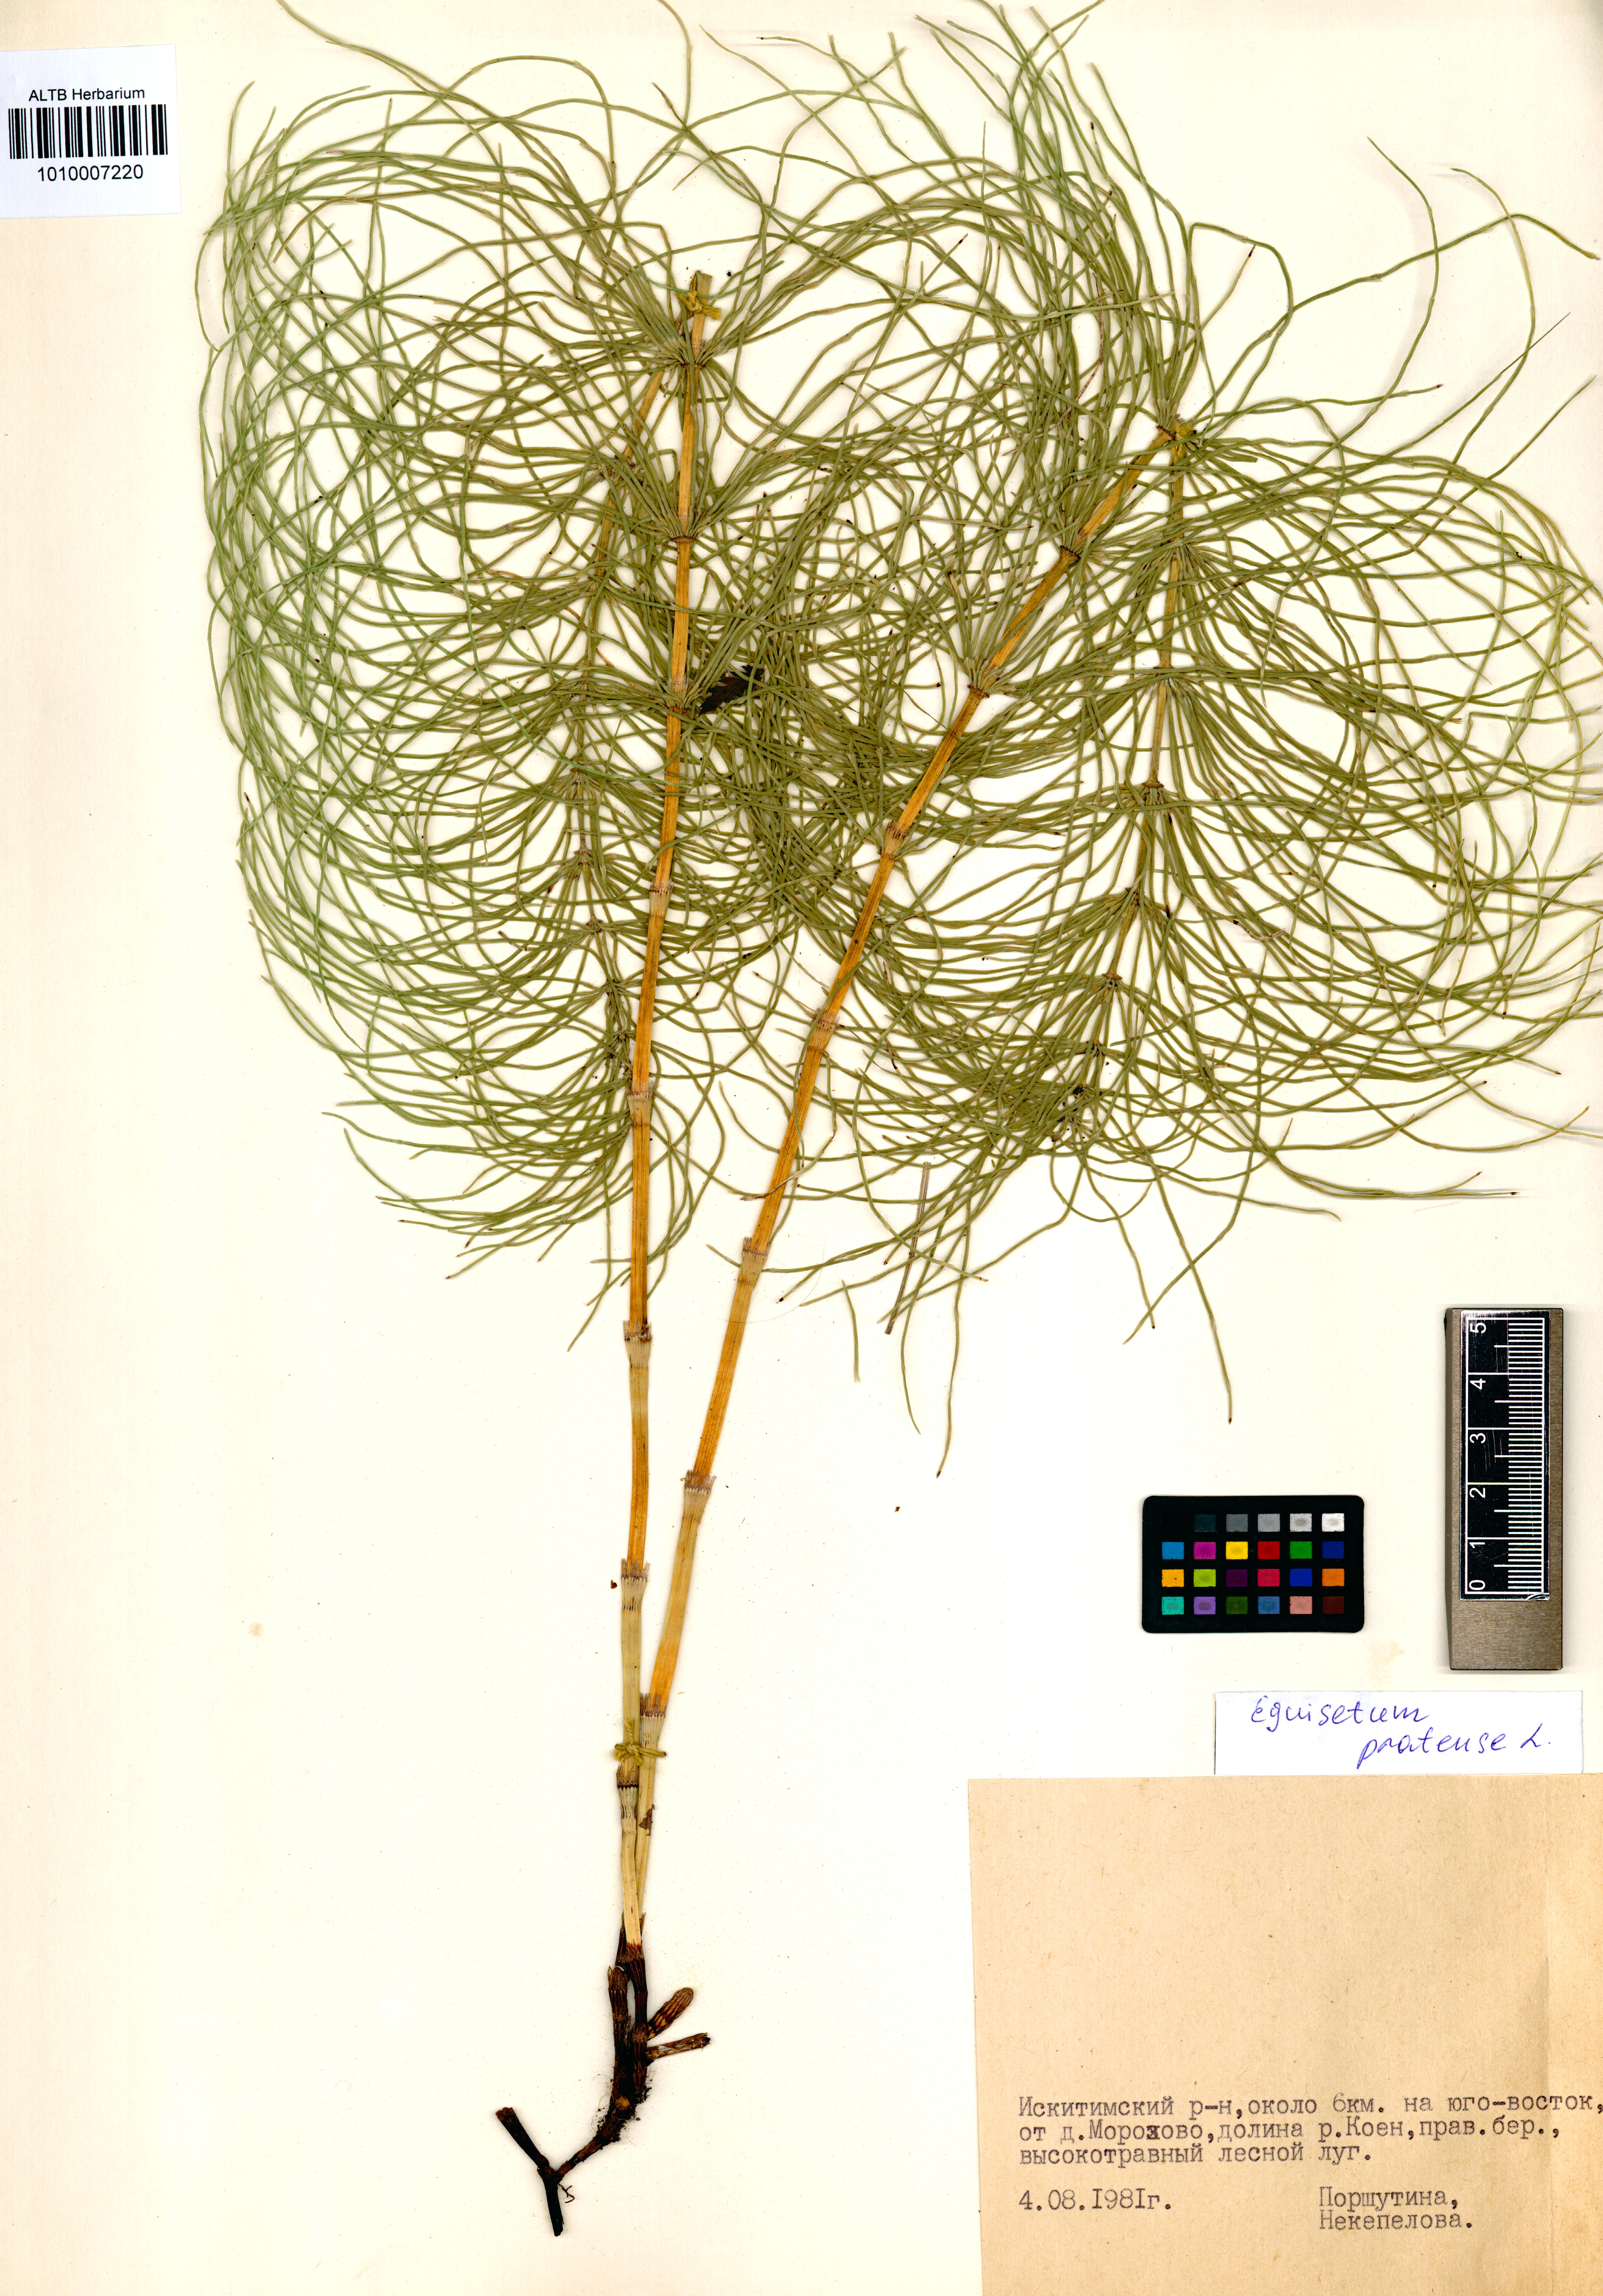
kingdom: Plantae
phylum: Tracheophyta
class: Polypodiopsida
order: Equisetales
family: Equisetaceae
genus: Equisetum
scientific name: Equisetum pratense
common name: Meadow horsetail
